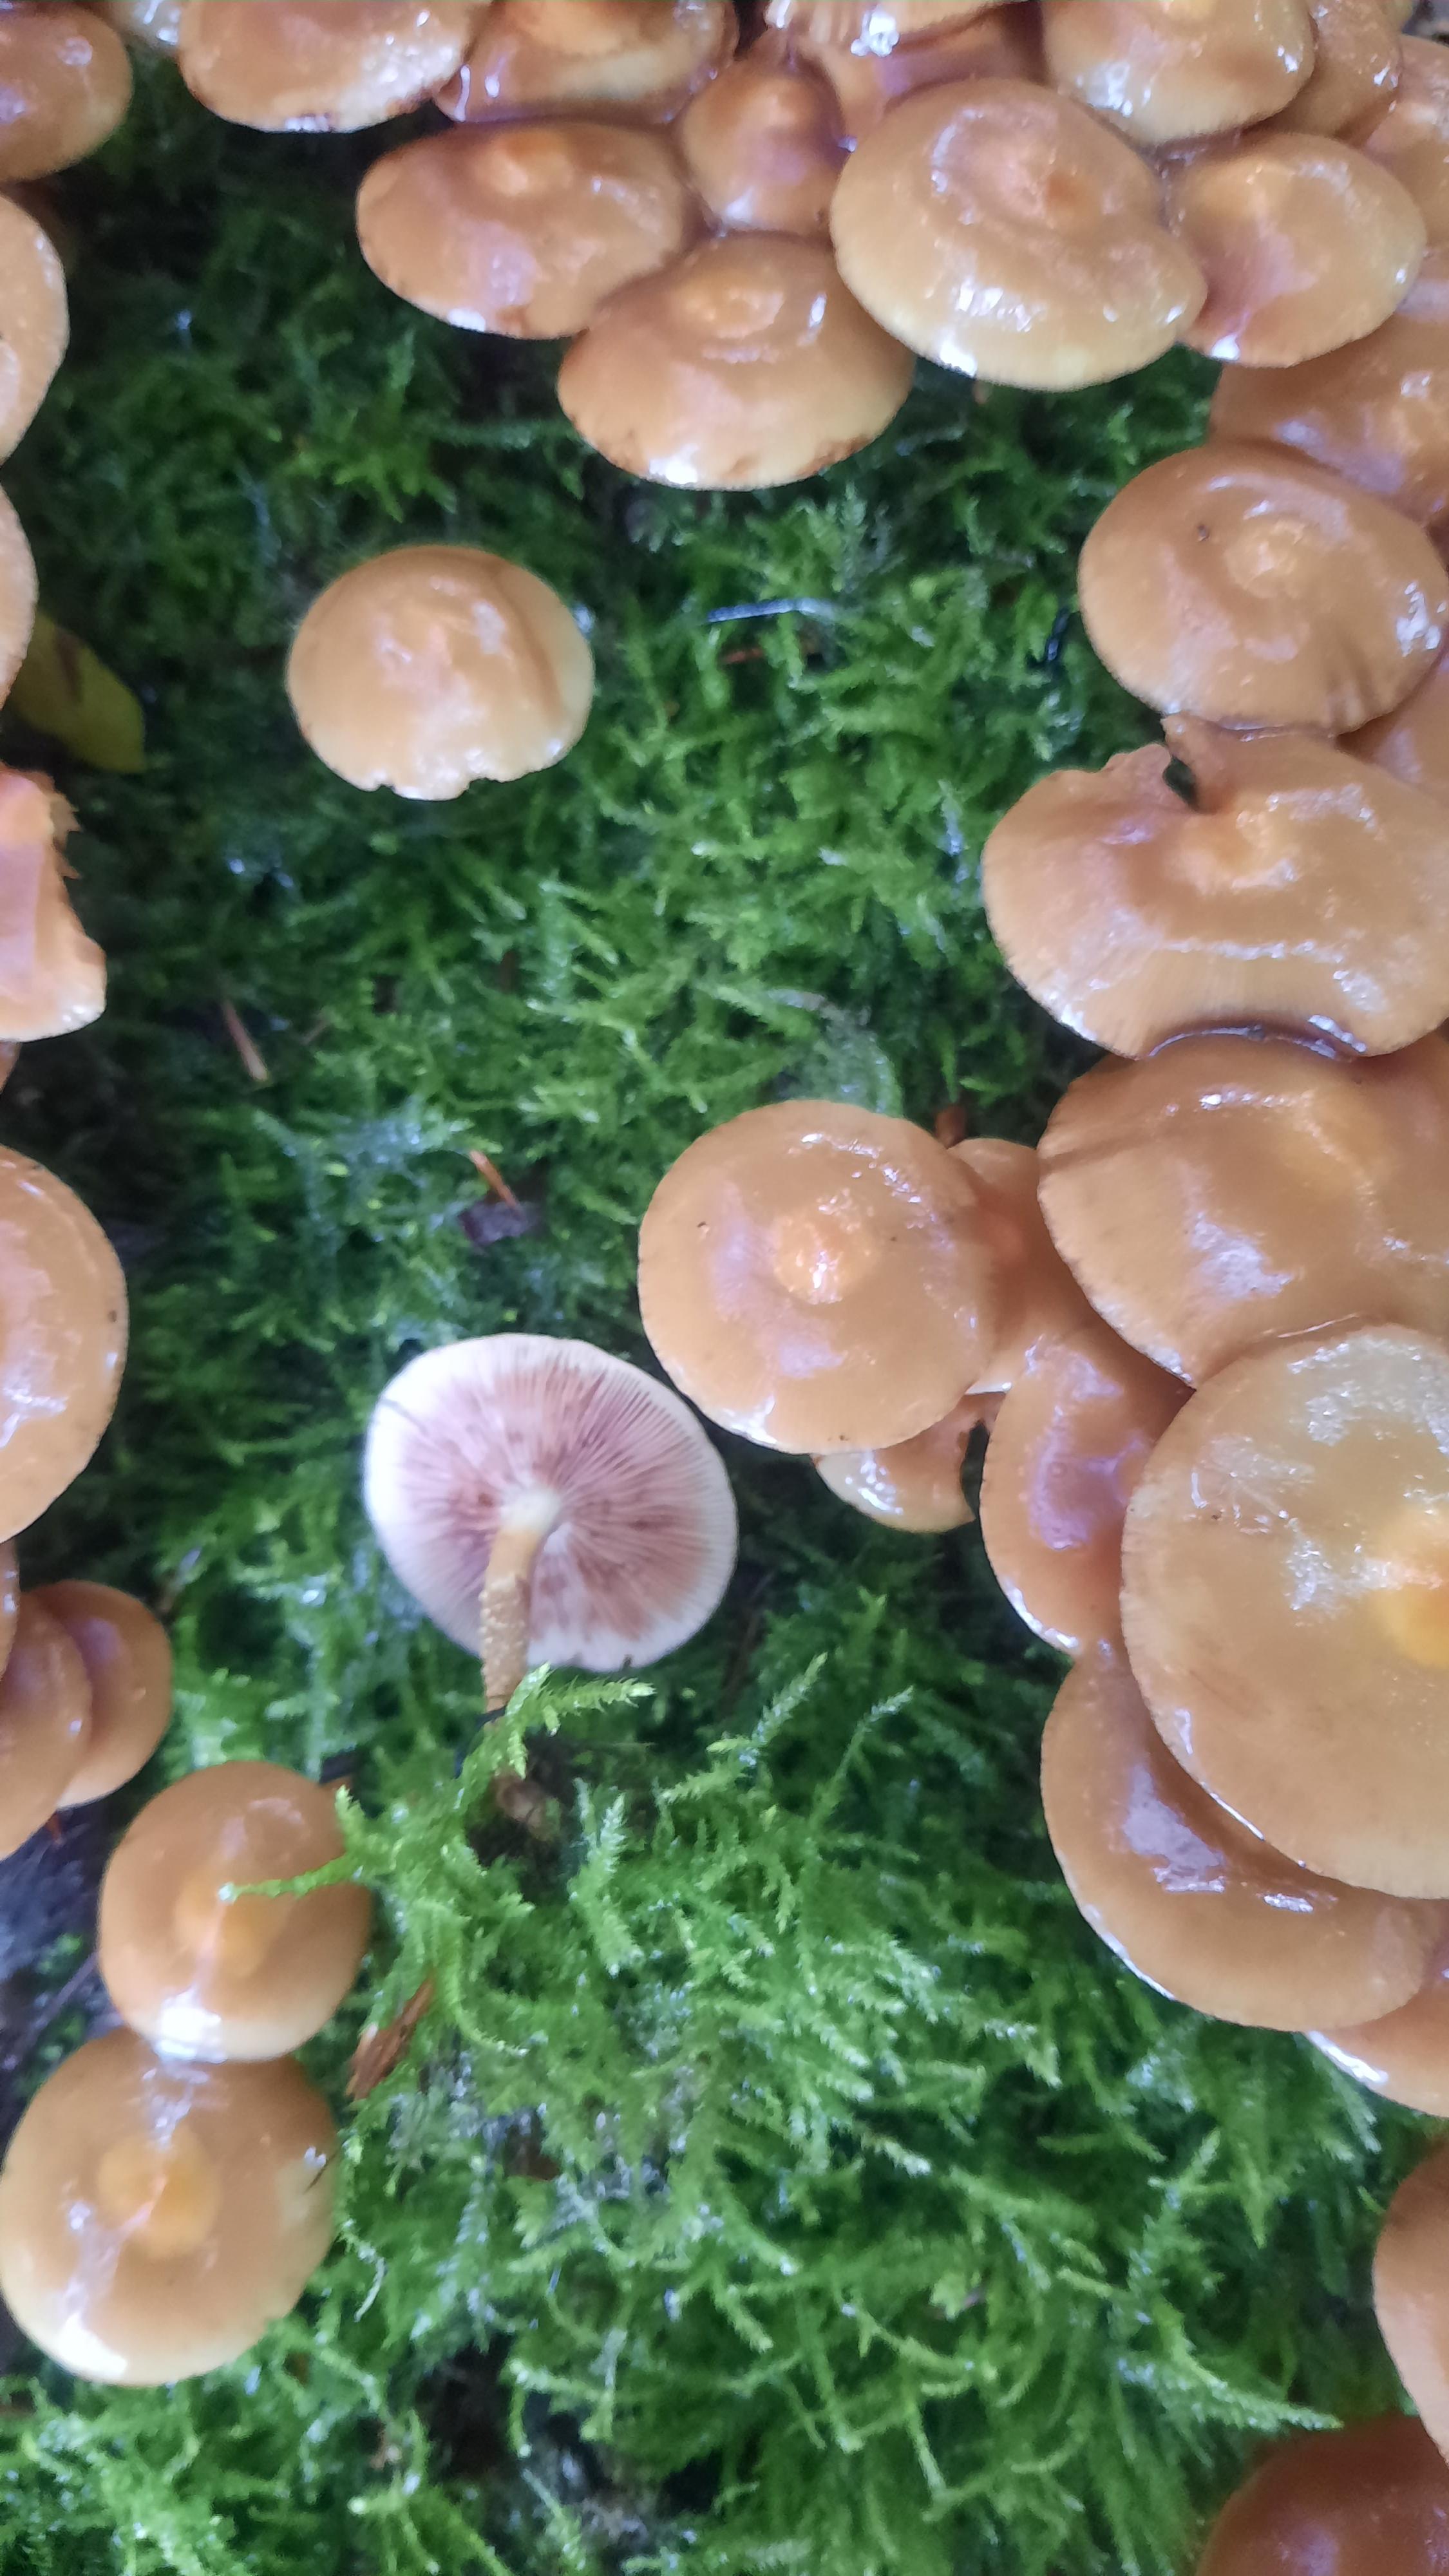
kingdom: Fungi
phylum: Basidiomycota
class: Agaricomycetes
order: Agaricales
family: Strophariaceae
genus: Kuehneromyces
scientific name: Kuehneromyces mutabilis
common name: foranderlig skælhat
